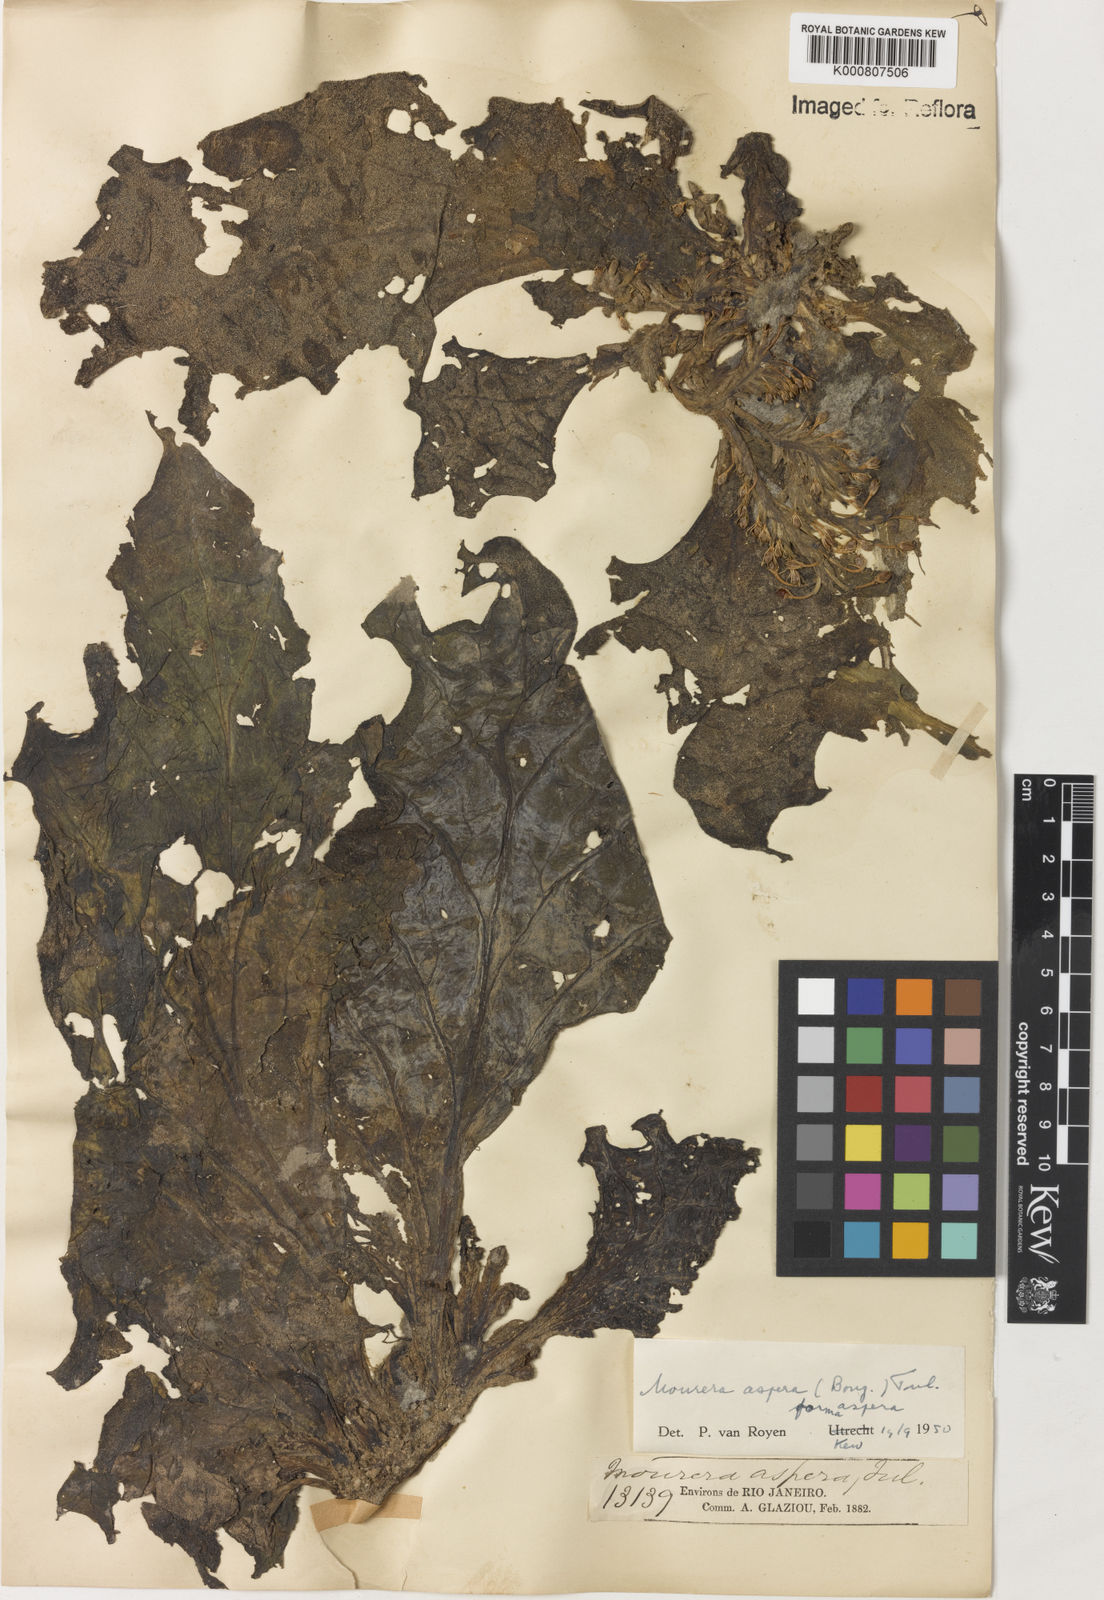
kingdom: Plantae
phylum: Tracheophyta
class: Magnoliopsida
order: Malpighiales
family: Podostemaceae
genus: Mourera
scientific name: Mourera aspera
